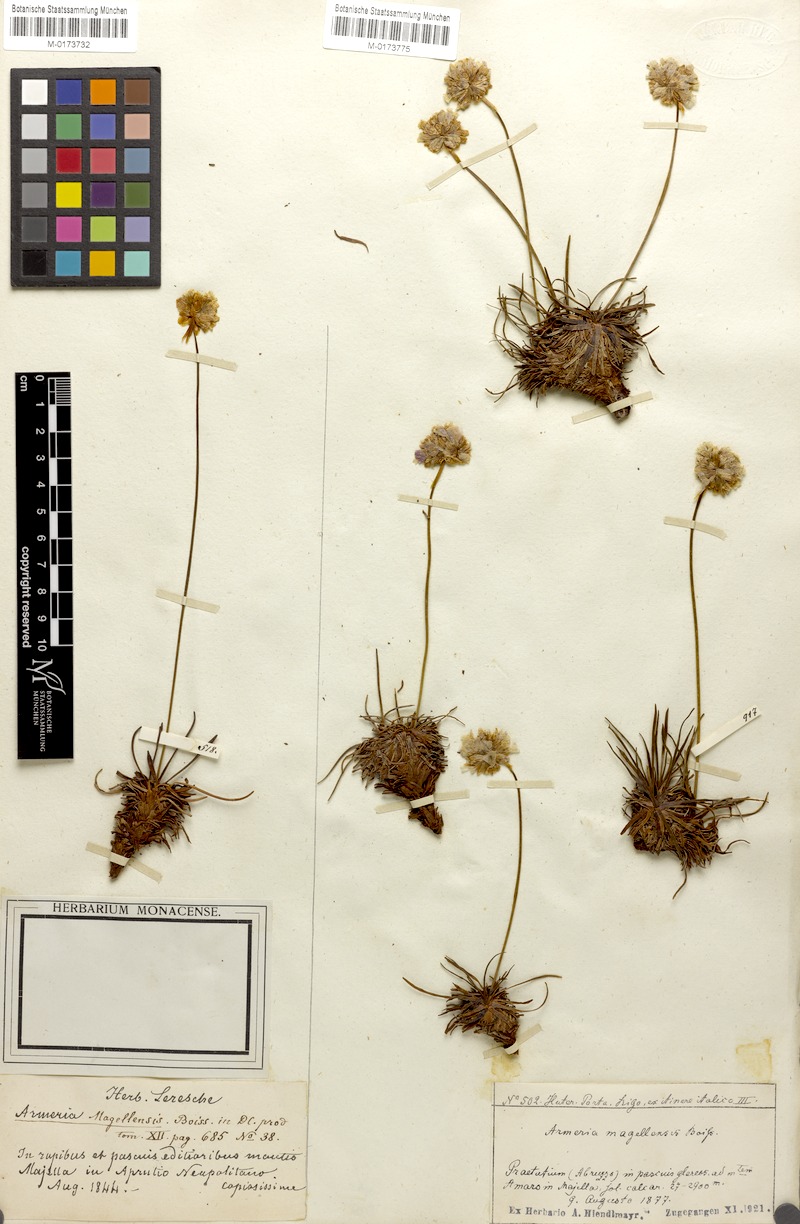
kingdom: Plantae
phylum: Tracheophyta
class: Magnoliopsida
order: Caryophyllales
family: Plumbaginaceae
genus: Armeria
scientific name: Armeria nebrodensis
